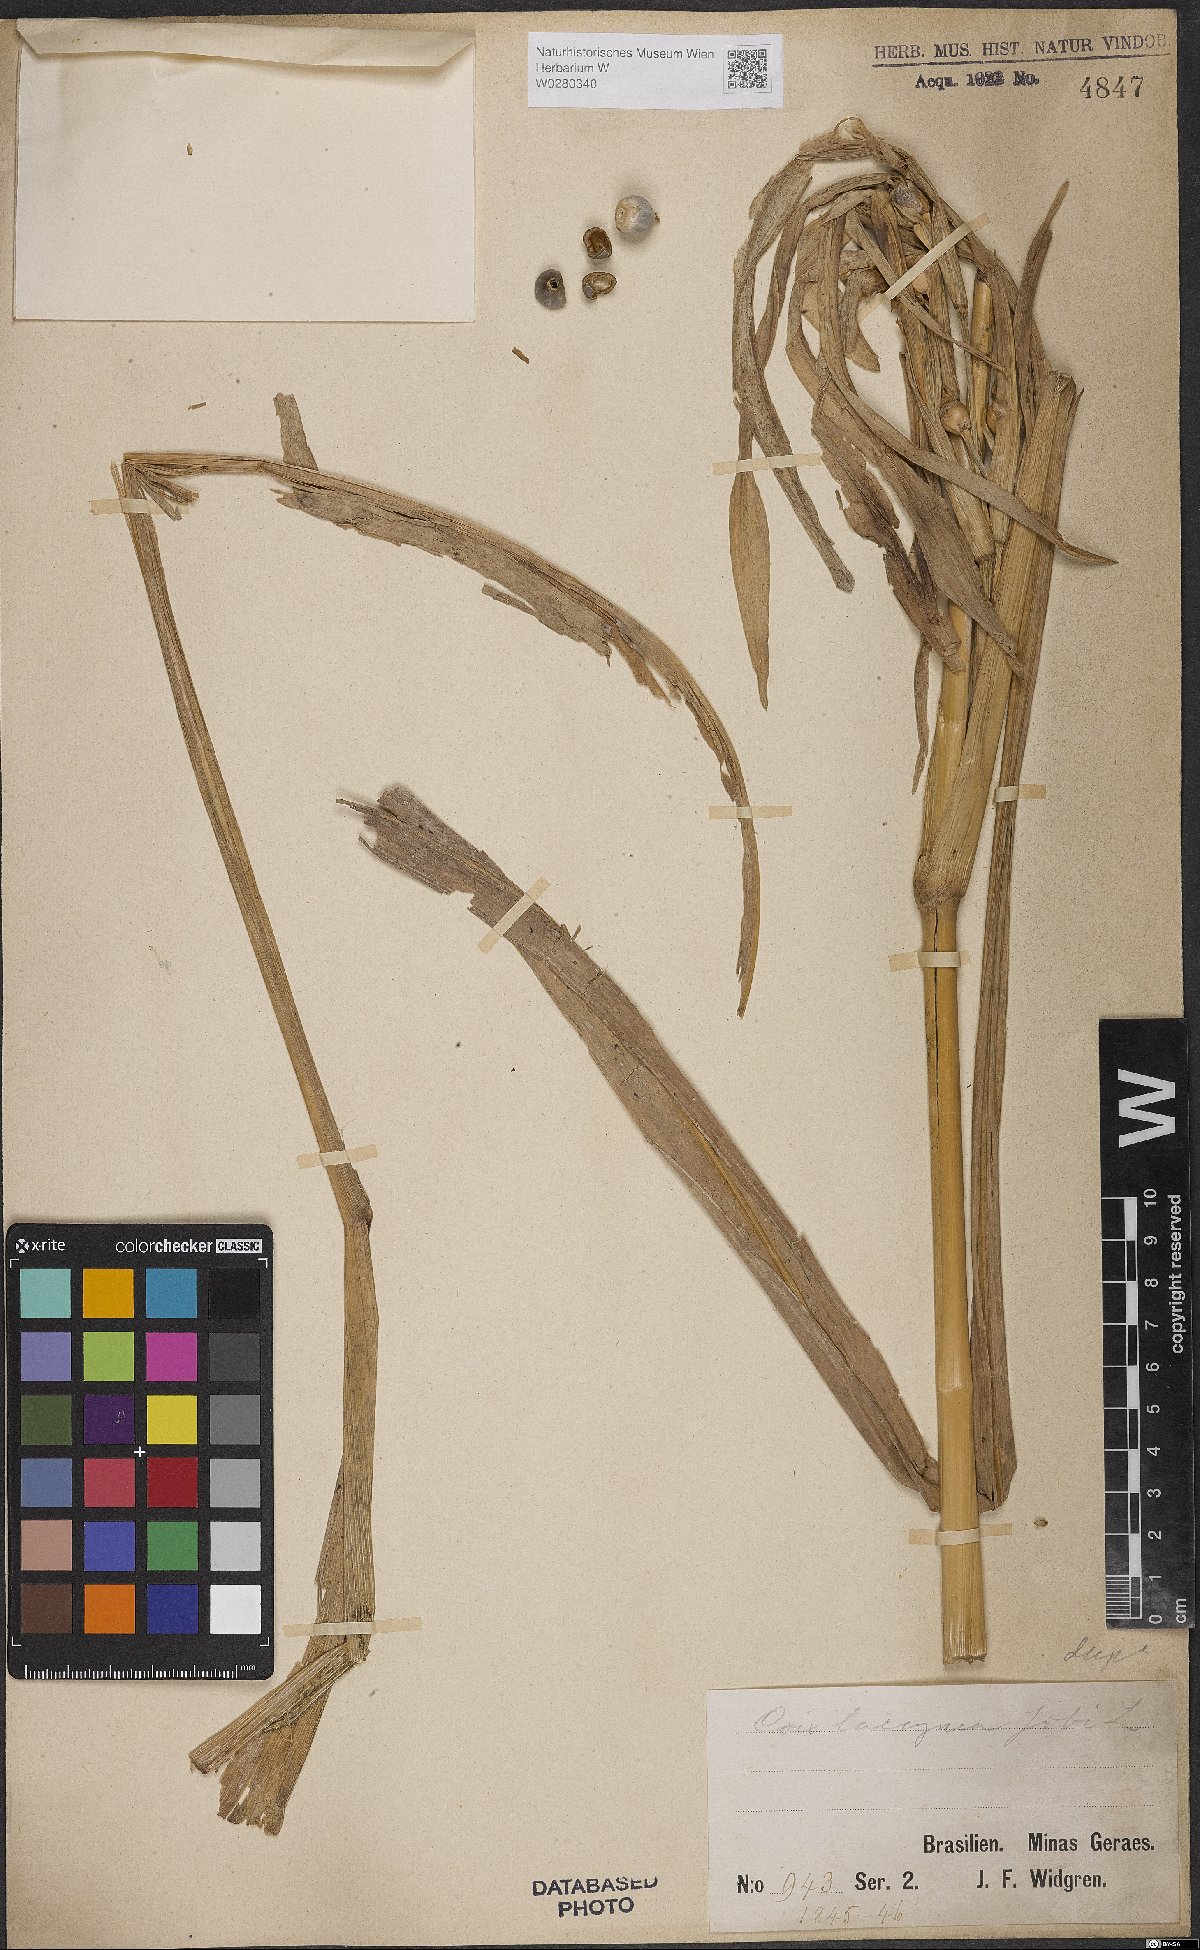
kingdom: Plantae
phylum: Tracheophyta
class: Liliopsida
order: Poales
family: Poaceae
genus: Coix
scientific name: Coix lacryma-jobi
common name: Job's tears
